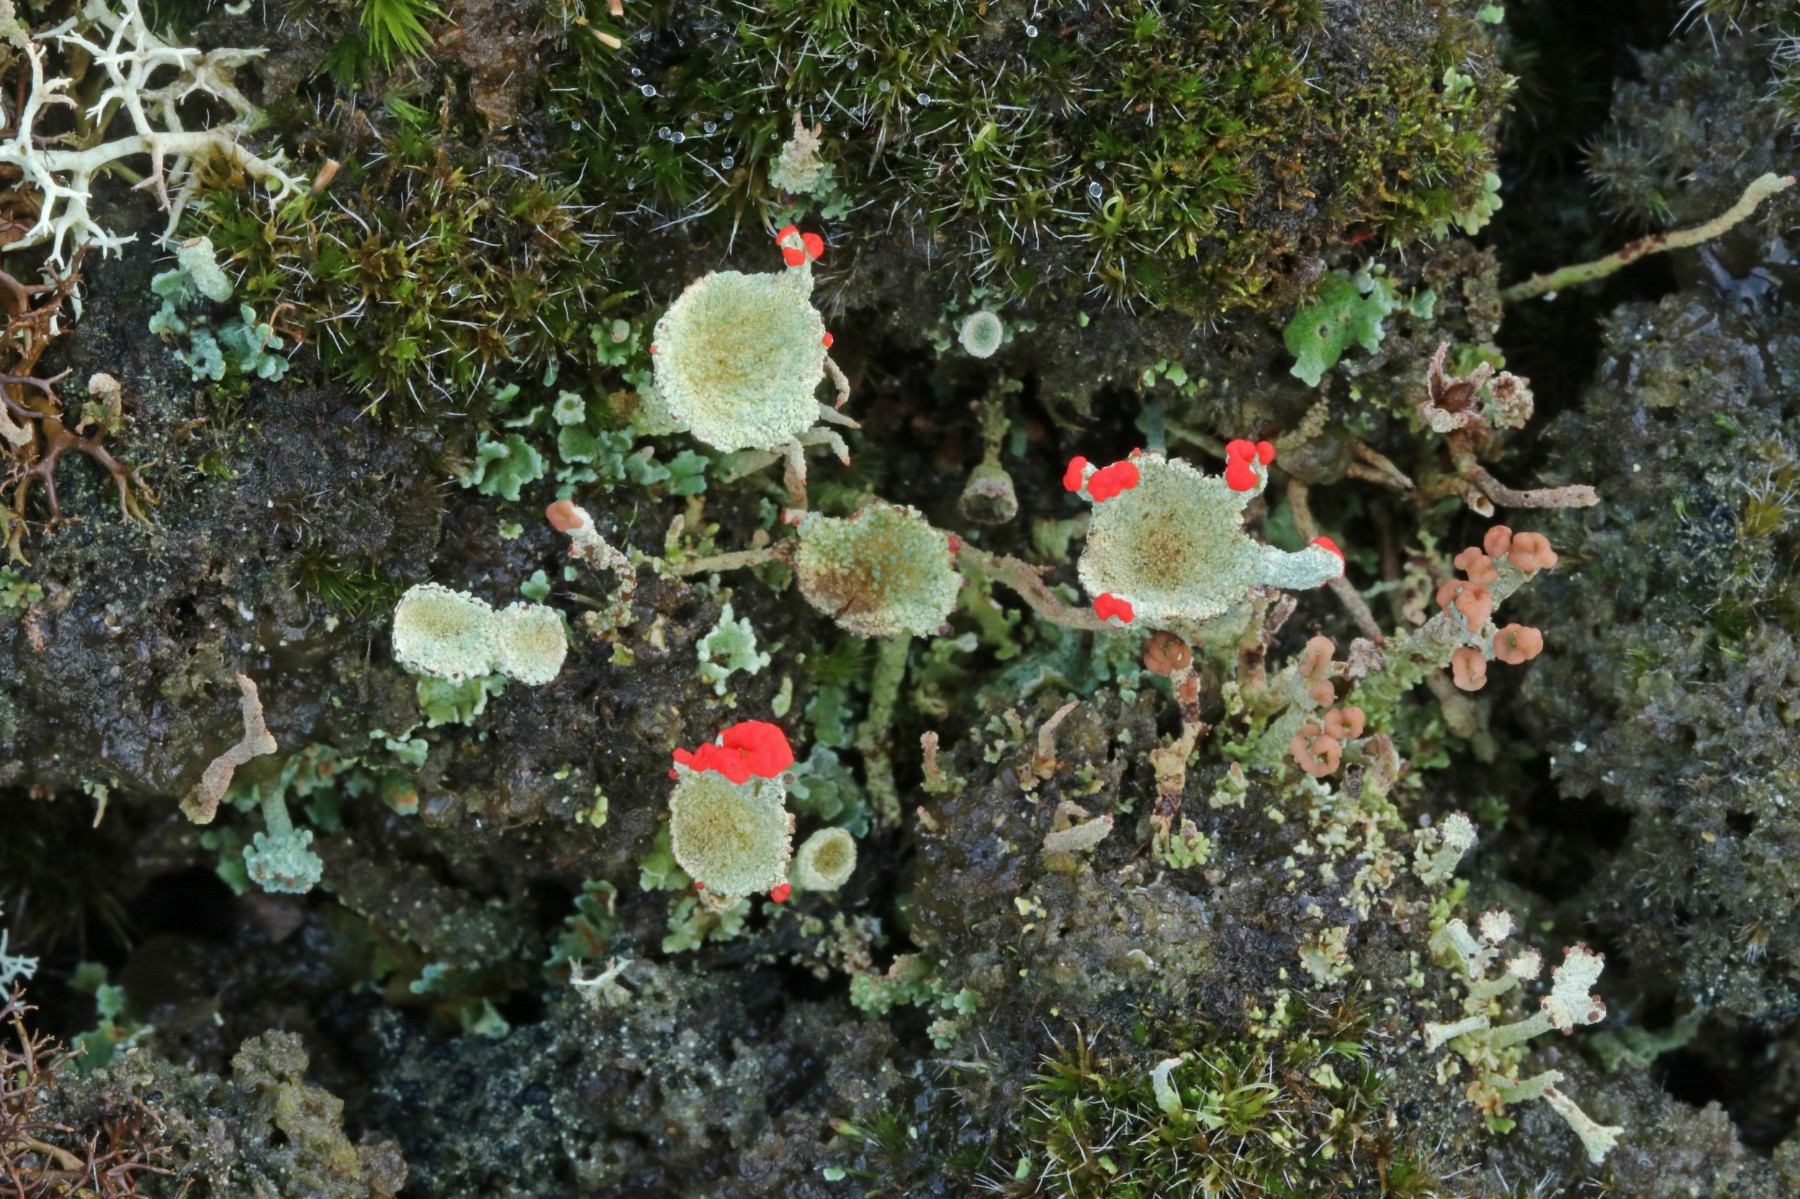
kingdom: Fungi
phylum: Ascomycota
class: Lecanoromycetes
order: Lecanorales
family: Cladoniaceae
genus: Cladonia
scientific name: Cladonia diversa
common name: rød bægerlav
